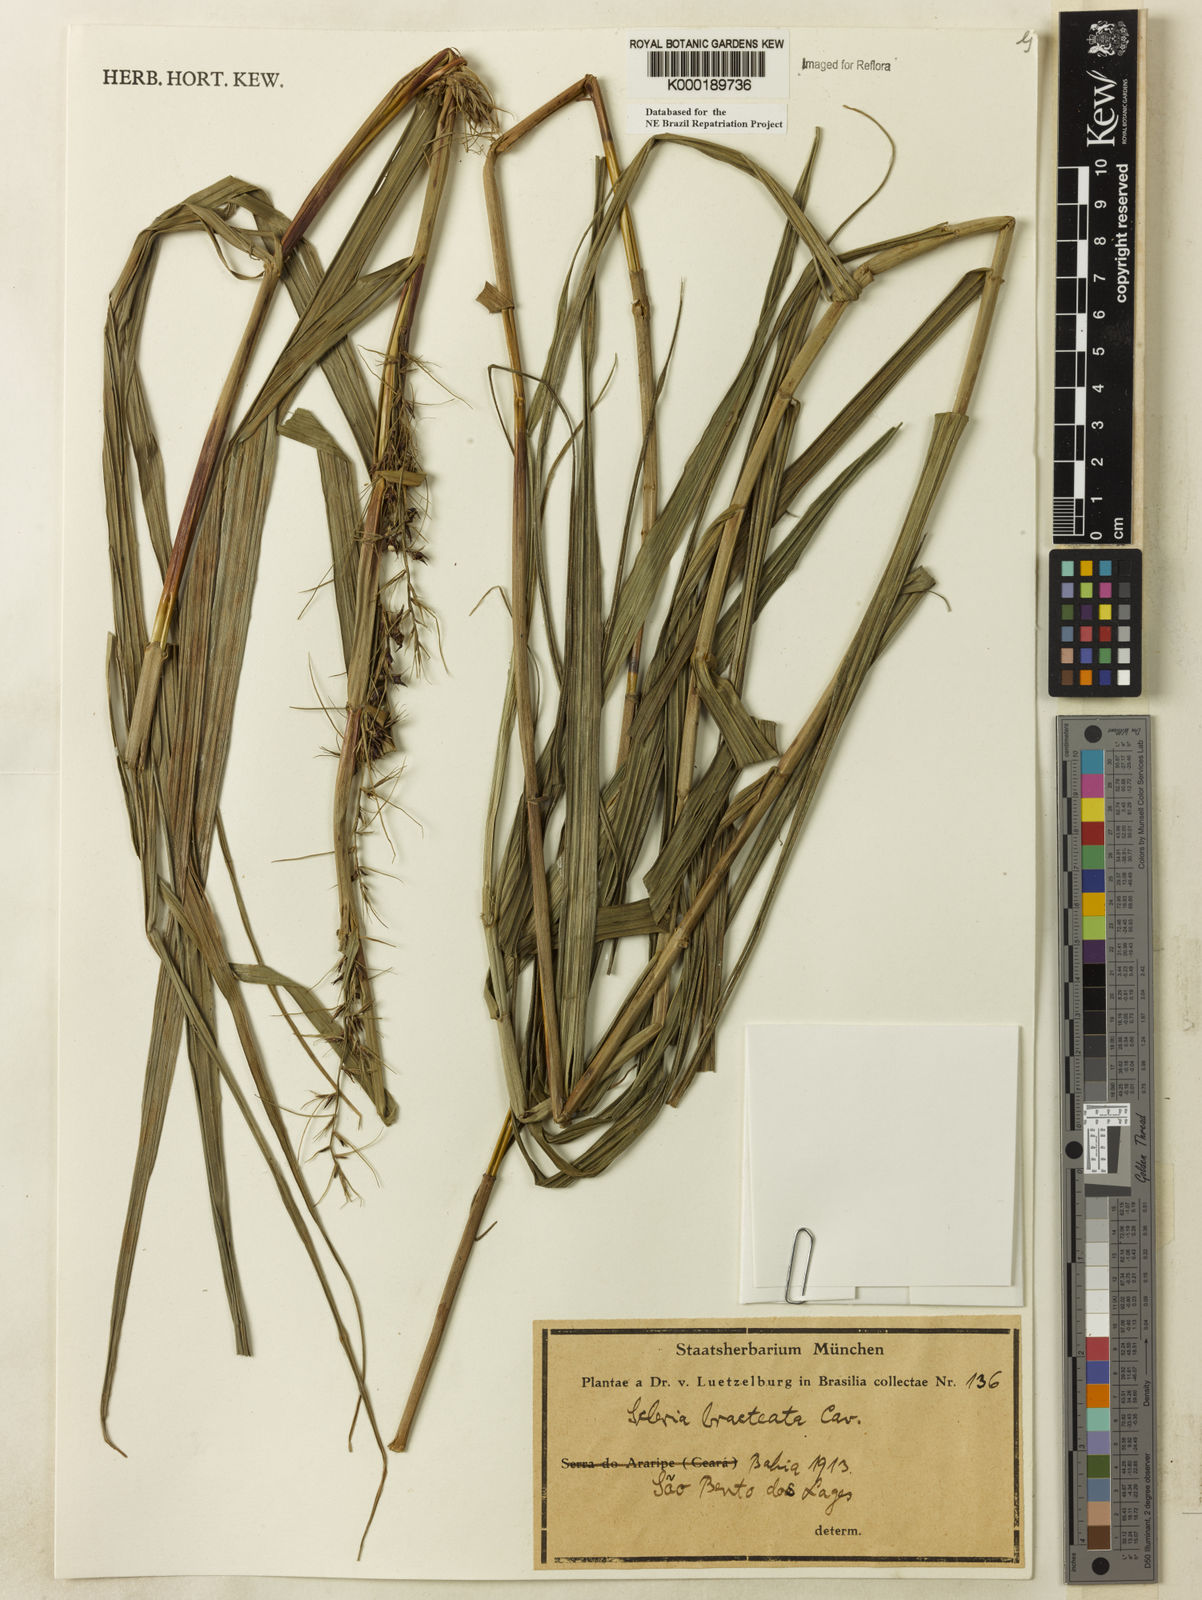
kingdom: Plantae
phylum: Tracheophyta
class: Liliopsida
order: Poales
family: Cyperaceae
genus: Scleria
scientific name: Scleria bracteata
